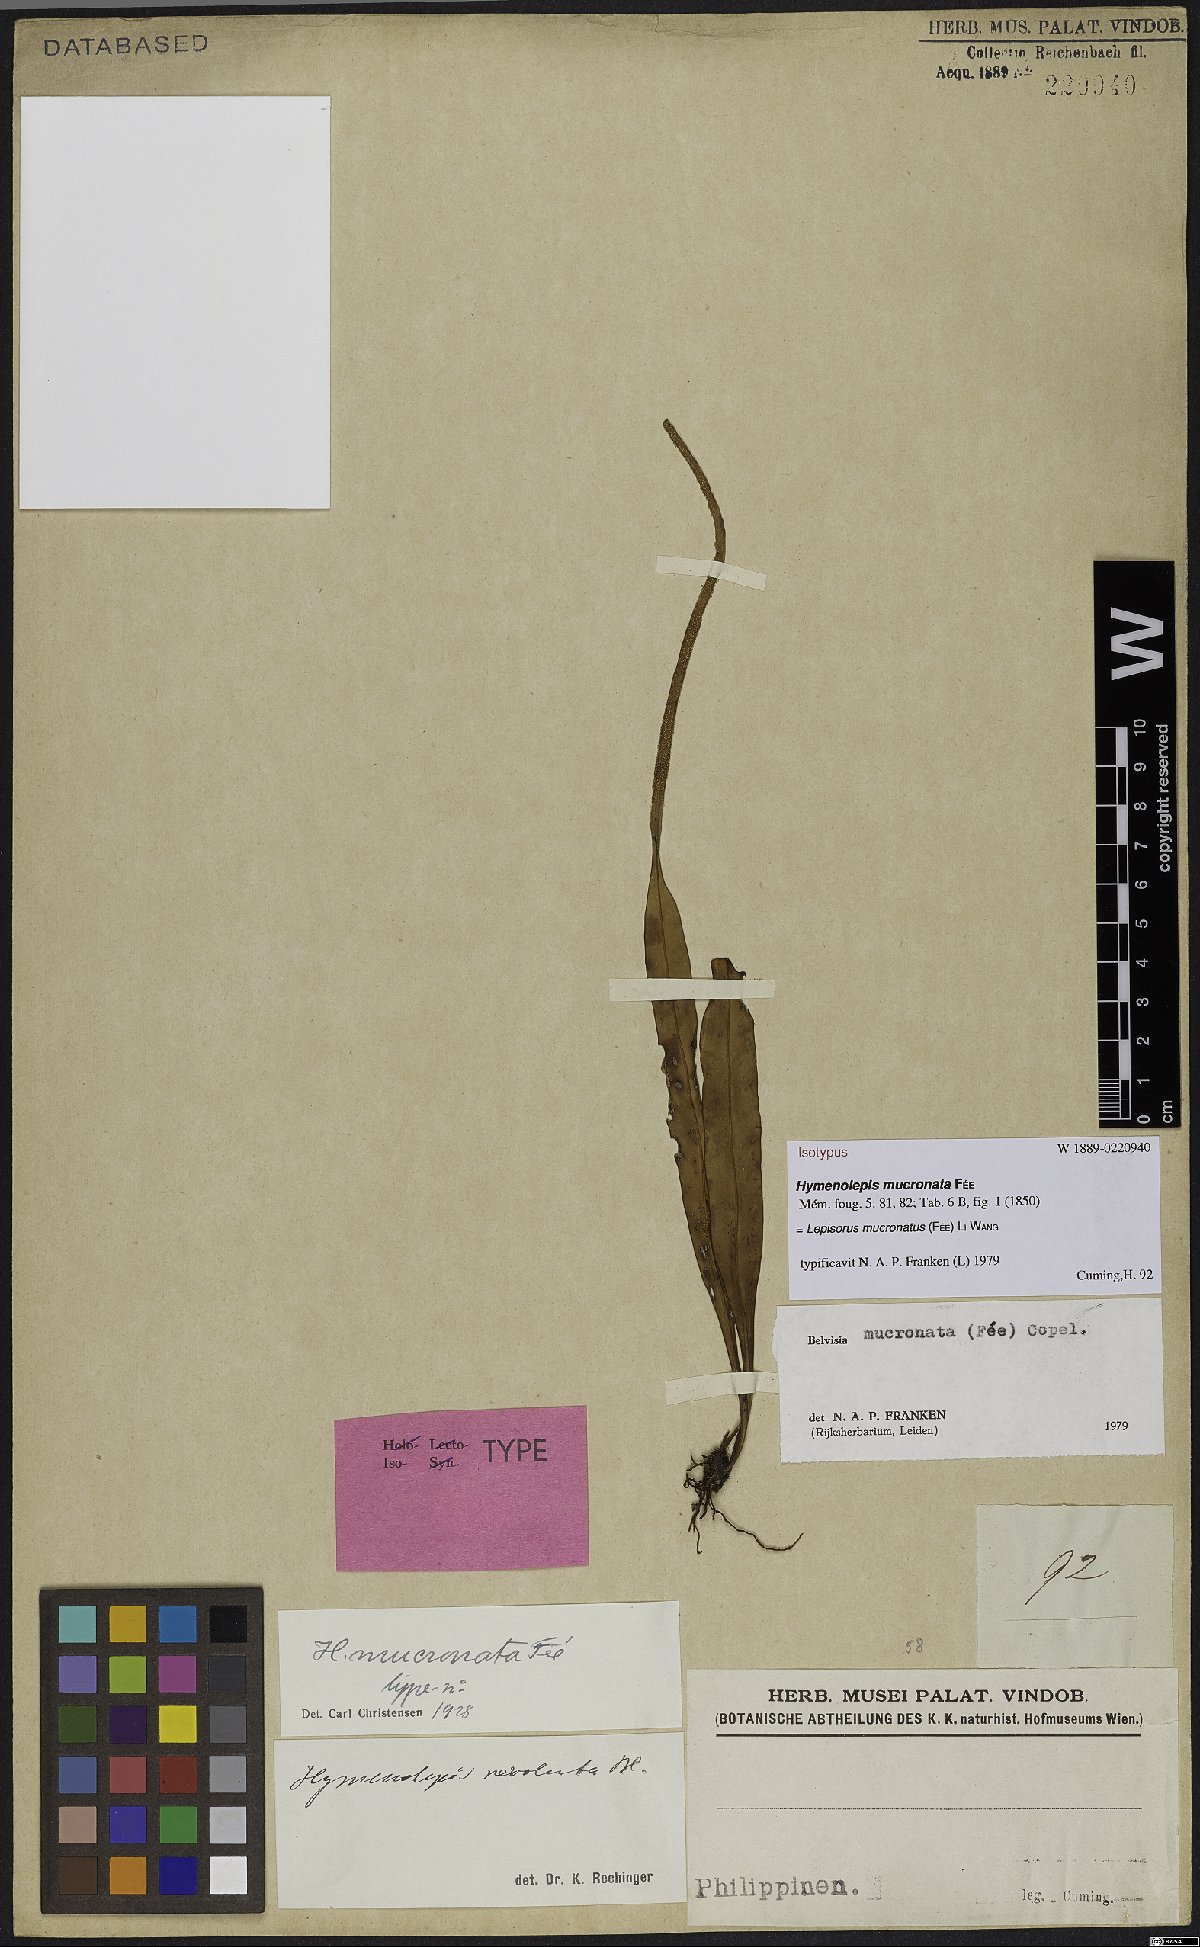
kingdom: Plantae
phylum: Tracheophyta
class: Polypodiopsida
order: Polypodiales
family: Polypodiaceae
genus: Lepisorus
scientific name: Lepisorus mucronatus
